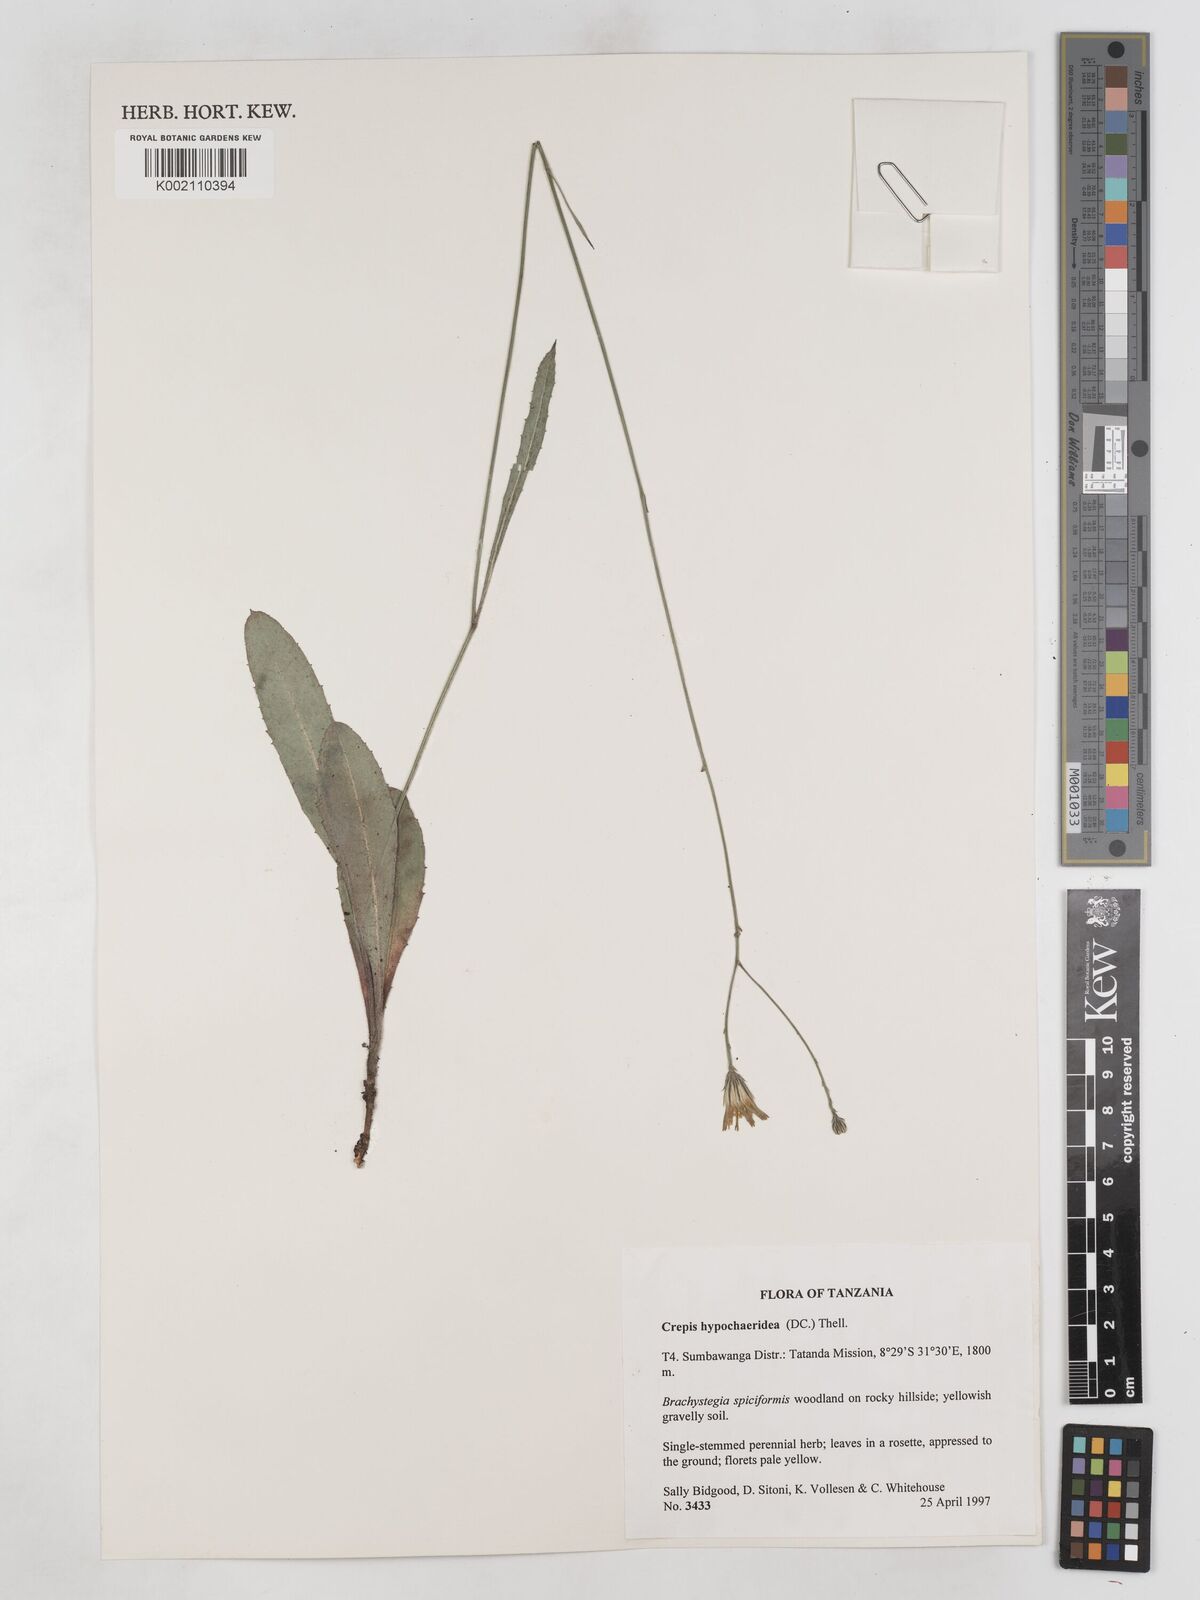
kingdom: Plantae
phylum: Tracheophyta
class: Magnoliopsida
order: Asterales
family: Asteraceae
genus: Crepis
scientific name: Crepis hypochoeridea
